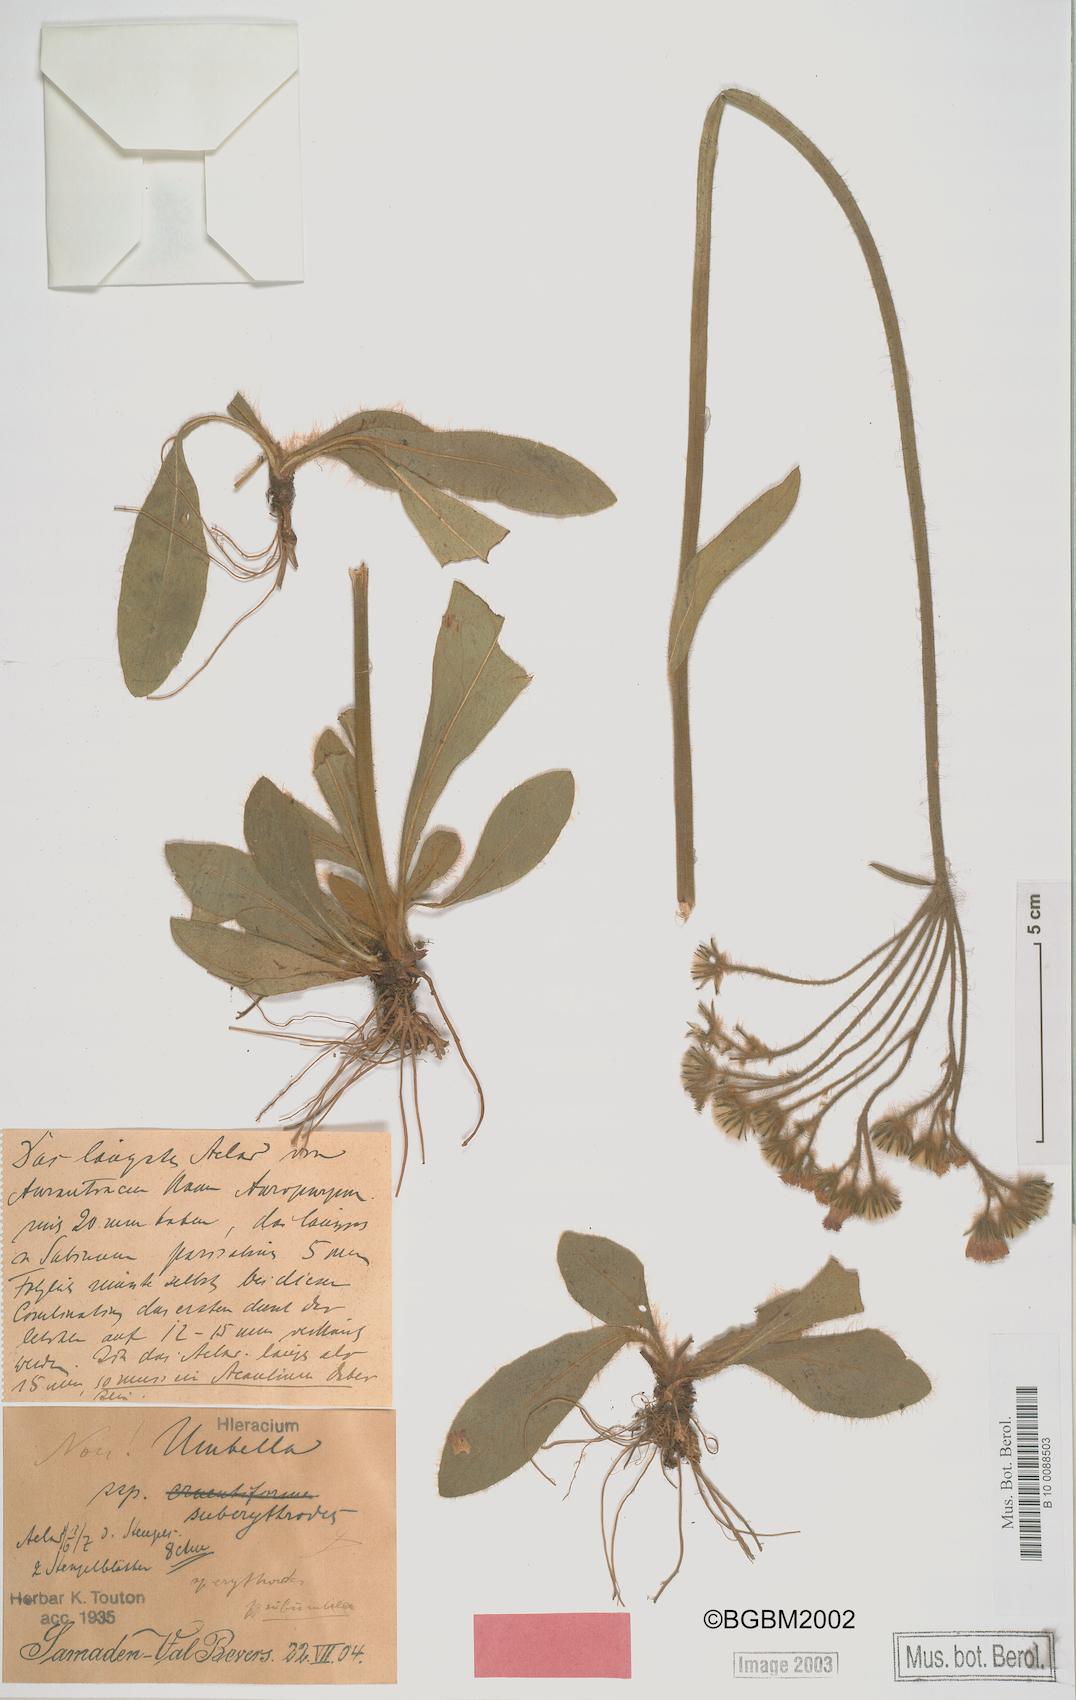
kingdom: Plantae
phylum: Tracheophyta
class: Magnoliopsida
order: Asterales
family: Asteraceae
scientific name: Asteraceae
